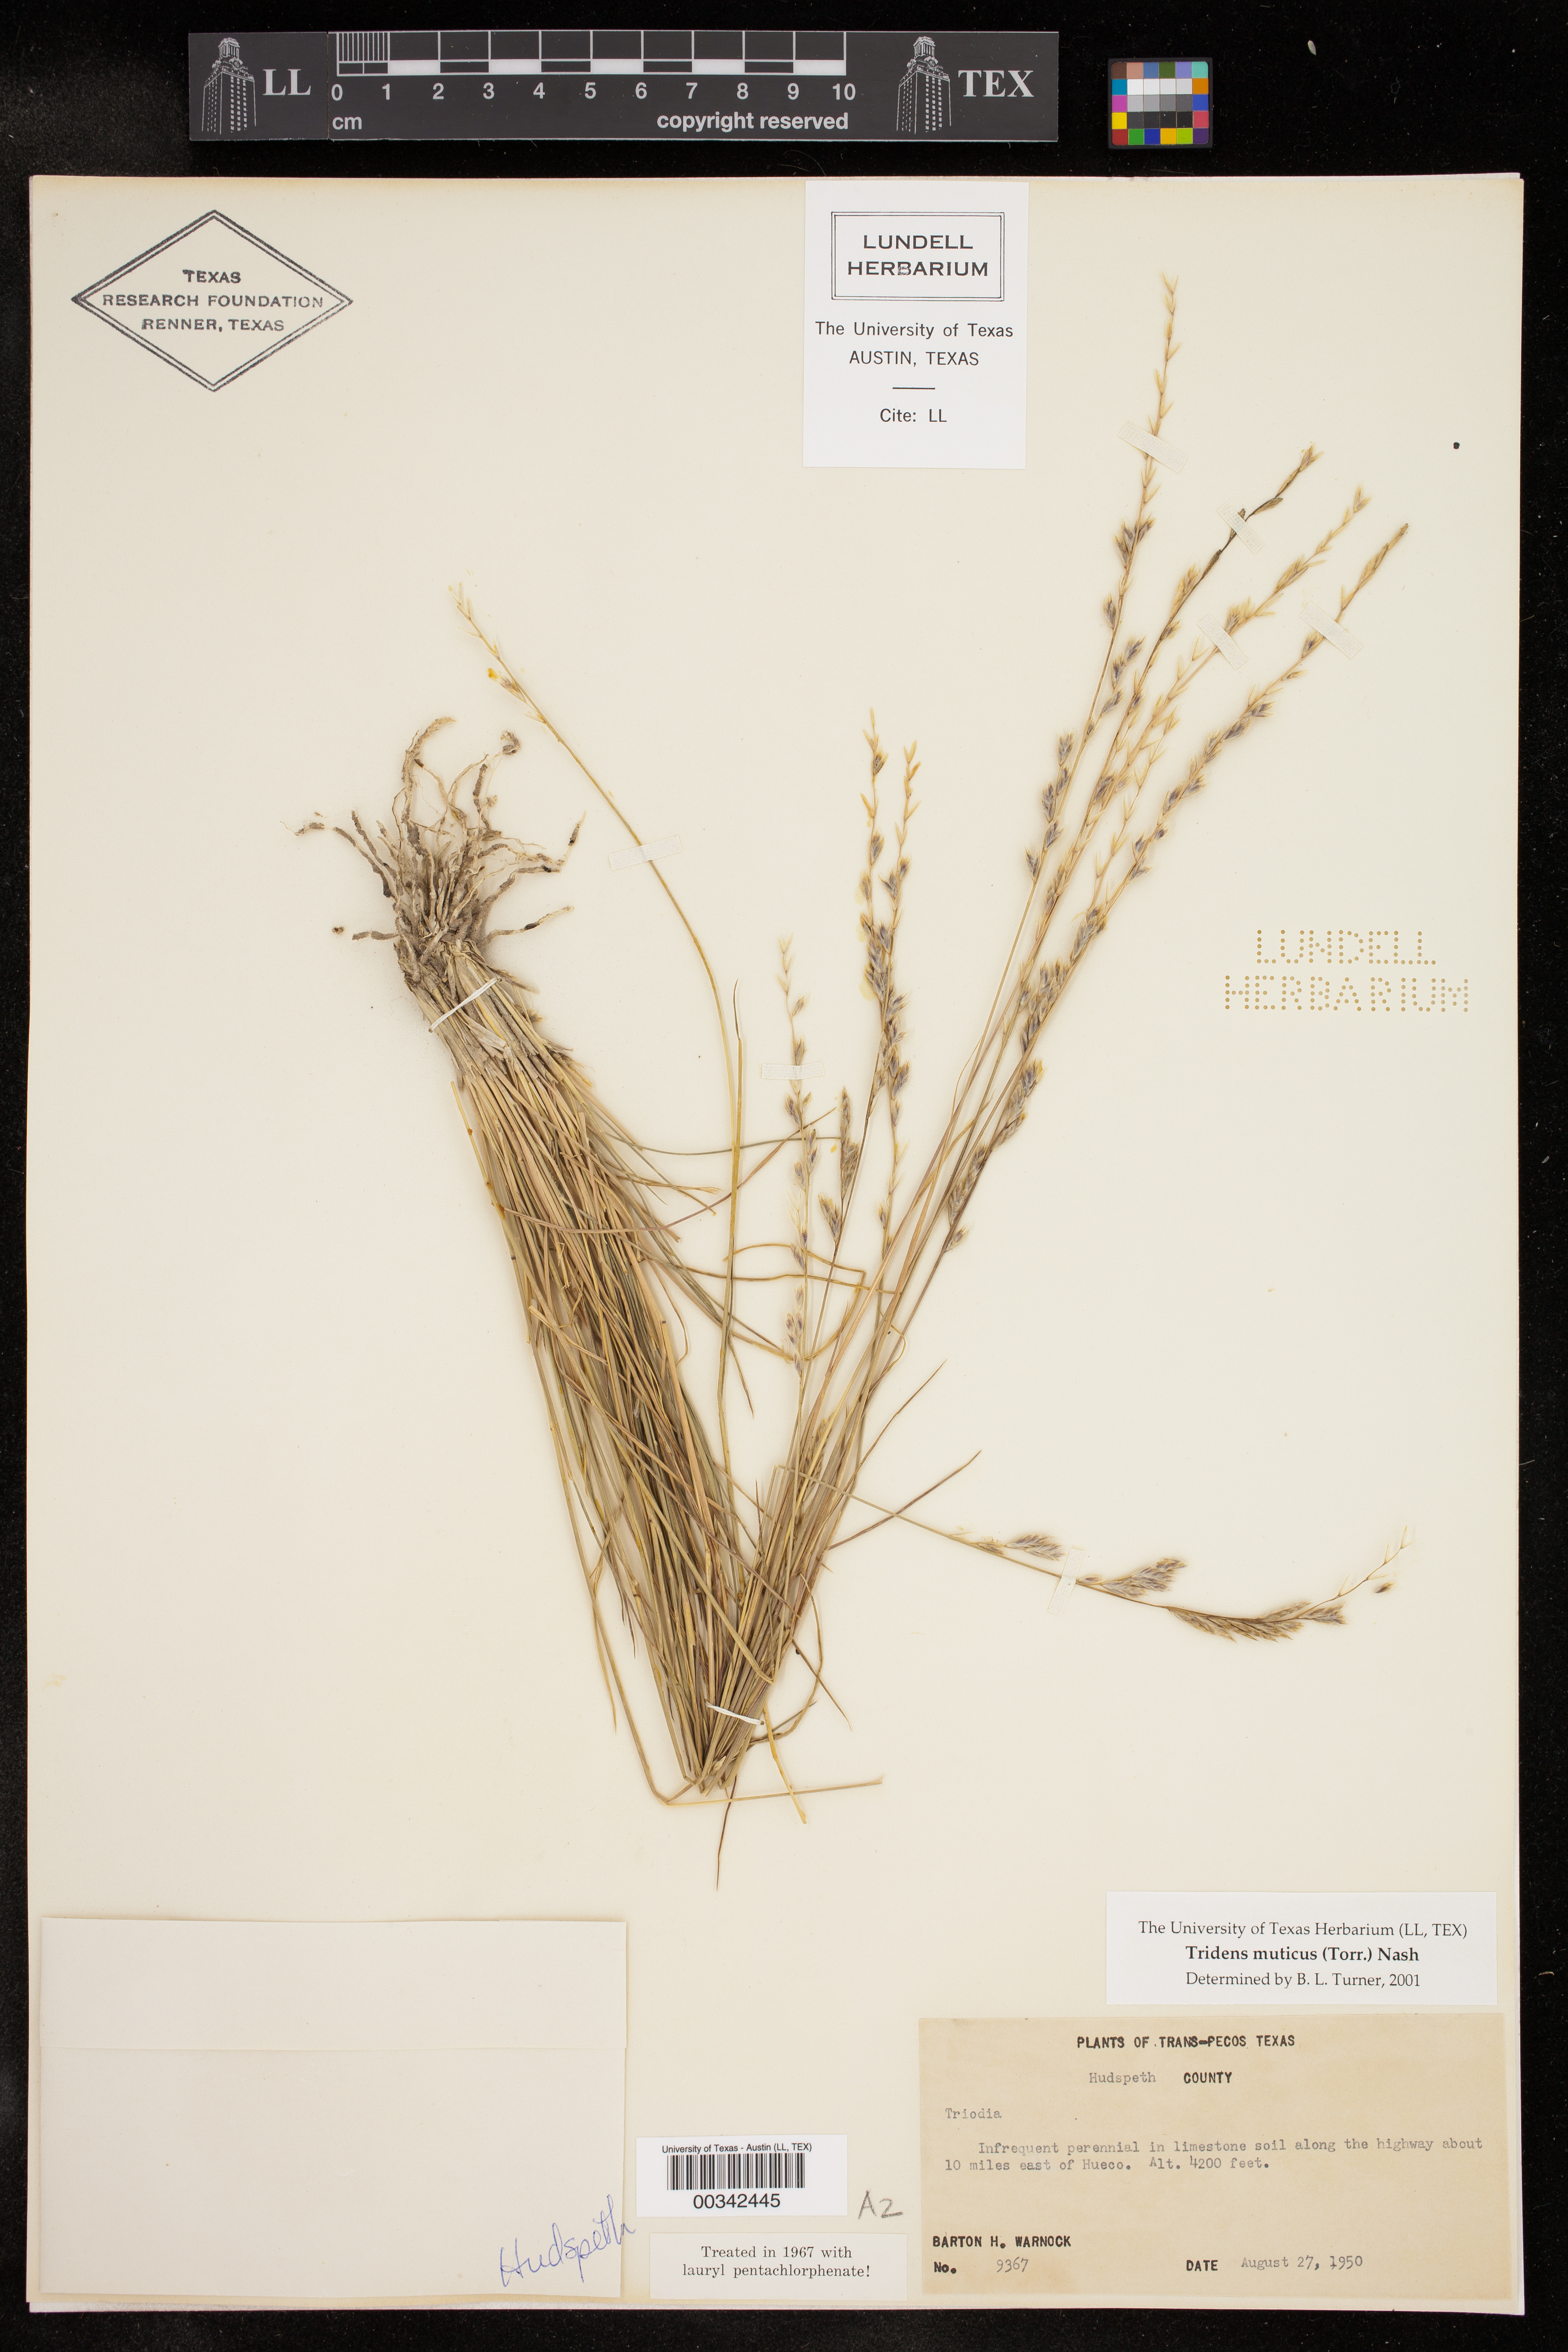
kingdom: Plantae
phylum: Tracheophyta
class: Liliopsida
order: Poales
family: Poaceae
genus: Tridentopsis
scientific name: Tridentopsis mutica
